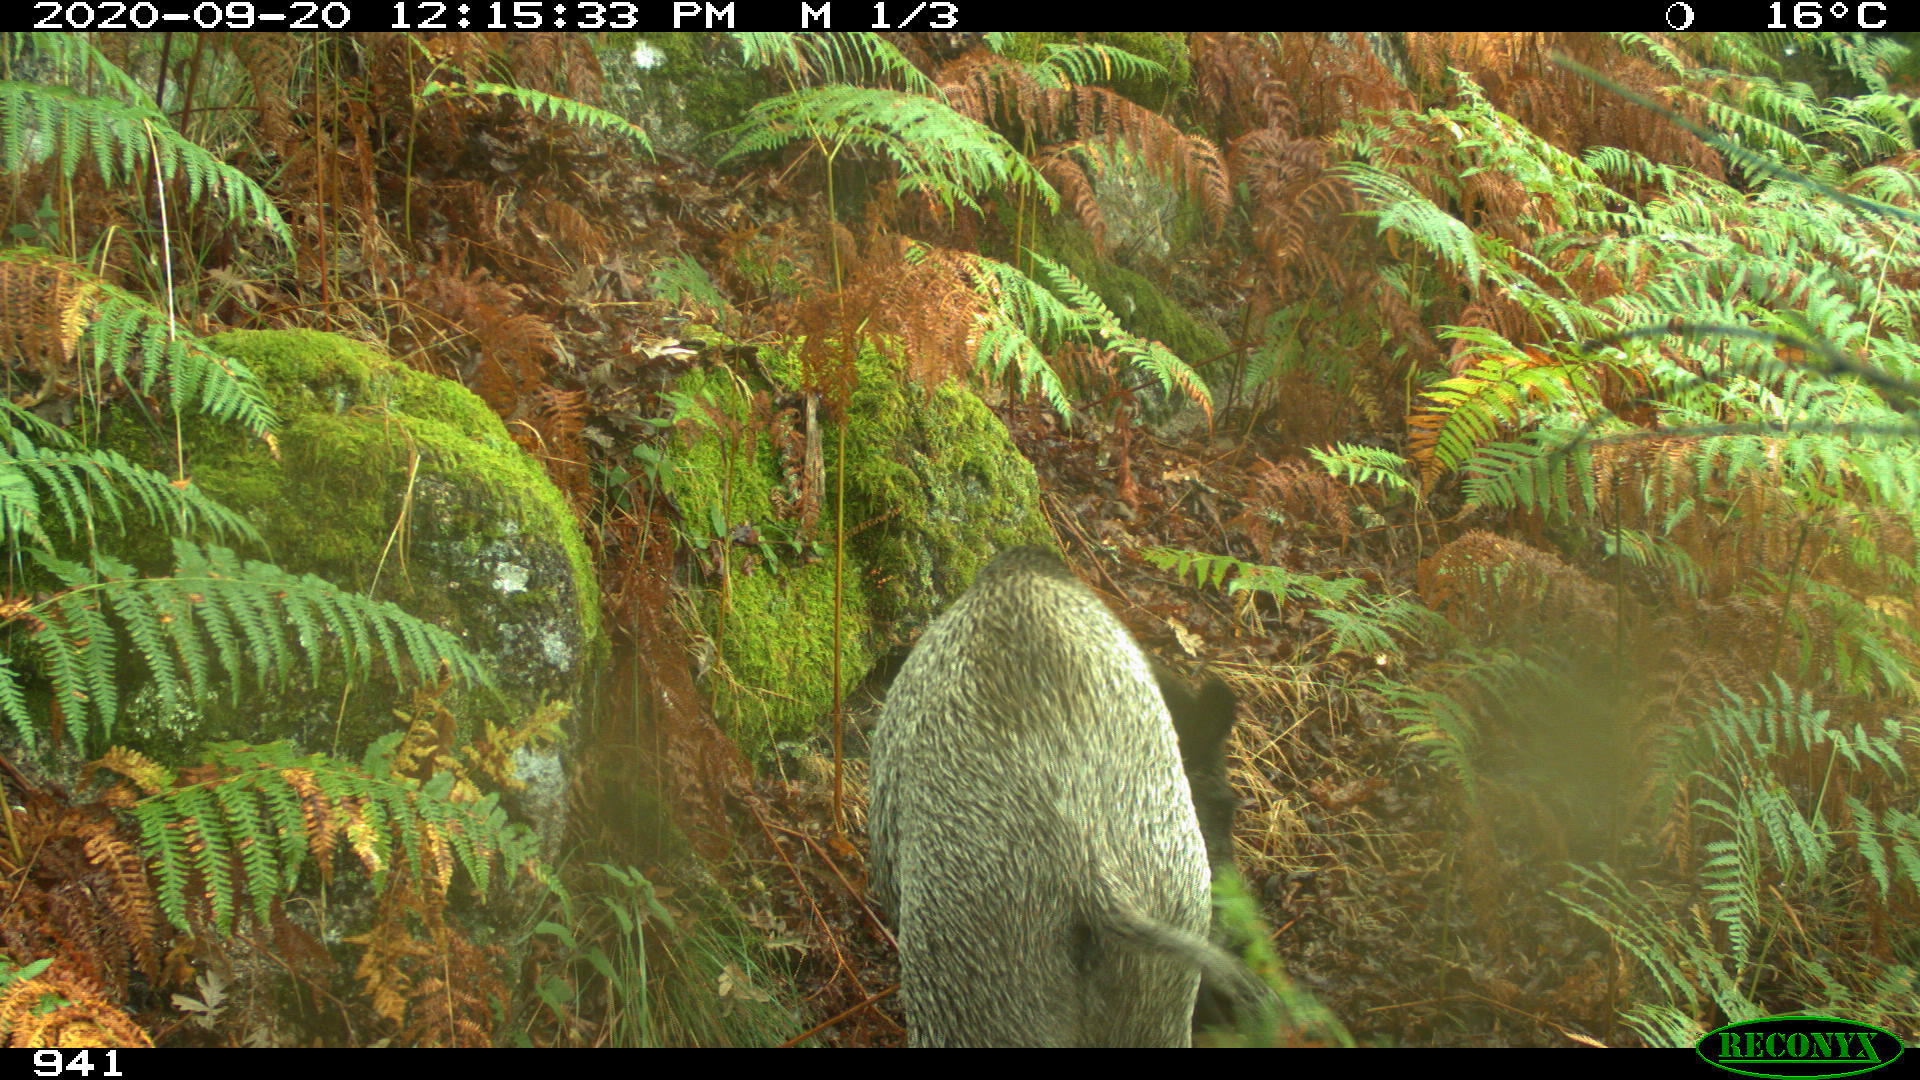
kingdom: Animalia
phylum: Chordata
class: Mammalia
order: Artiodactyla
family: Suidae
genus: Sus
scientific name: Sus scrofa
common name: Wild boar
